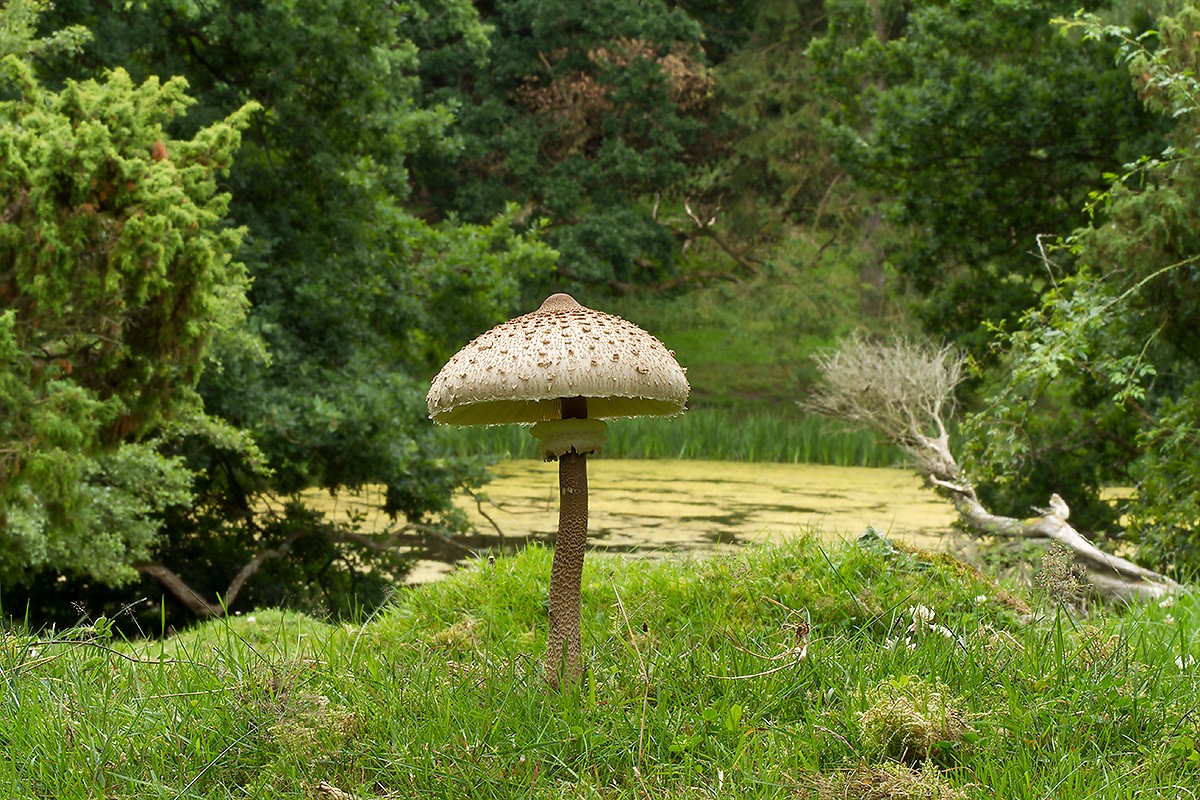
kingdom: Fungi
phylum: Basidiomycota
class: Agaricomycetes
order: Agaricales
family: Agaricaceae
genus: Macrolepiota
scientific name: Macrolepiota procera
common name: stor kæmpeparasolhat
